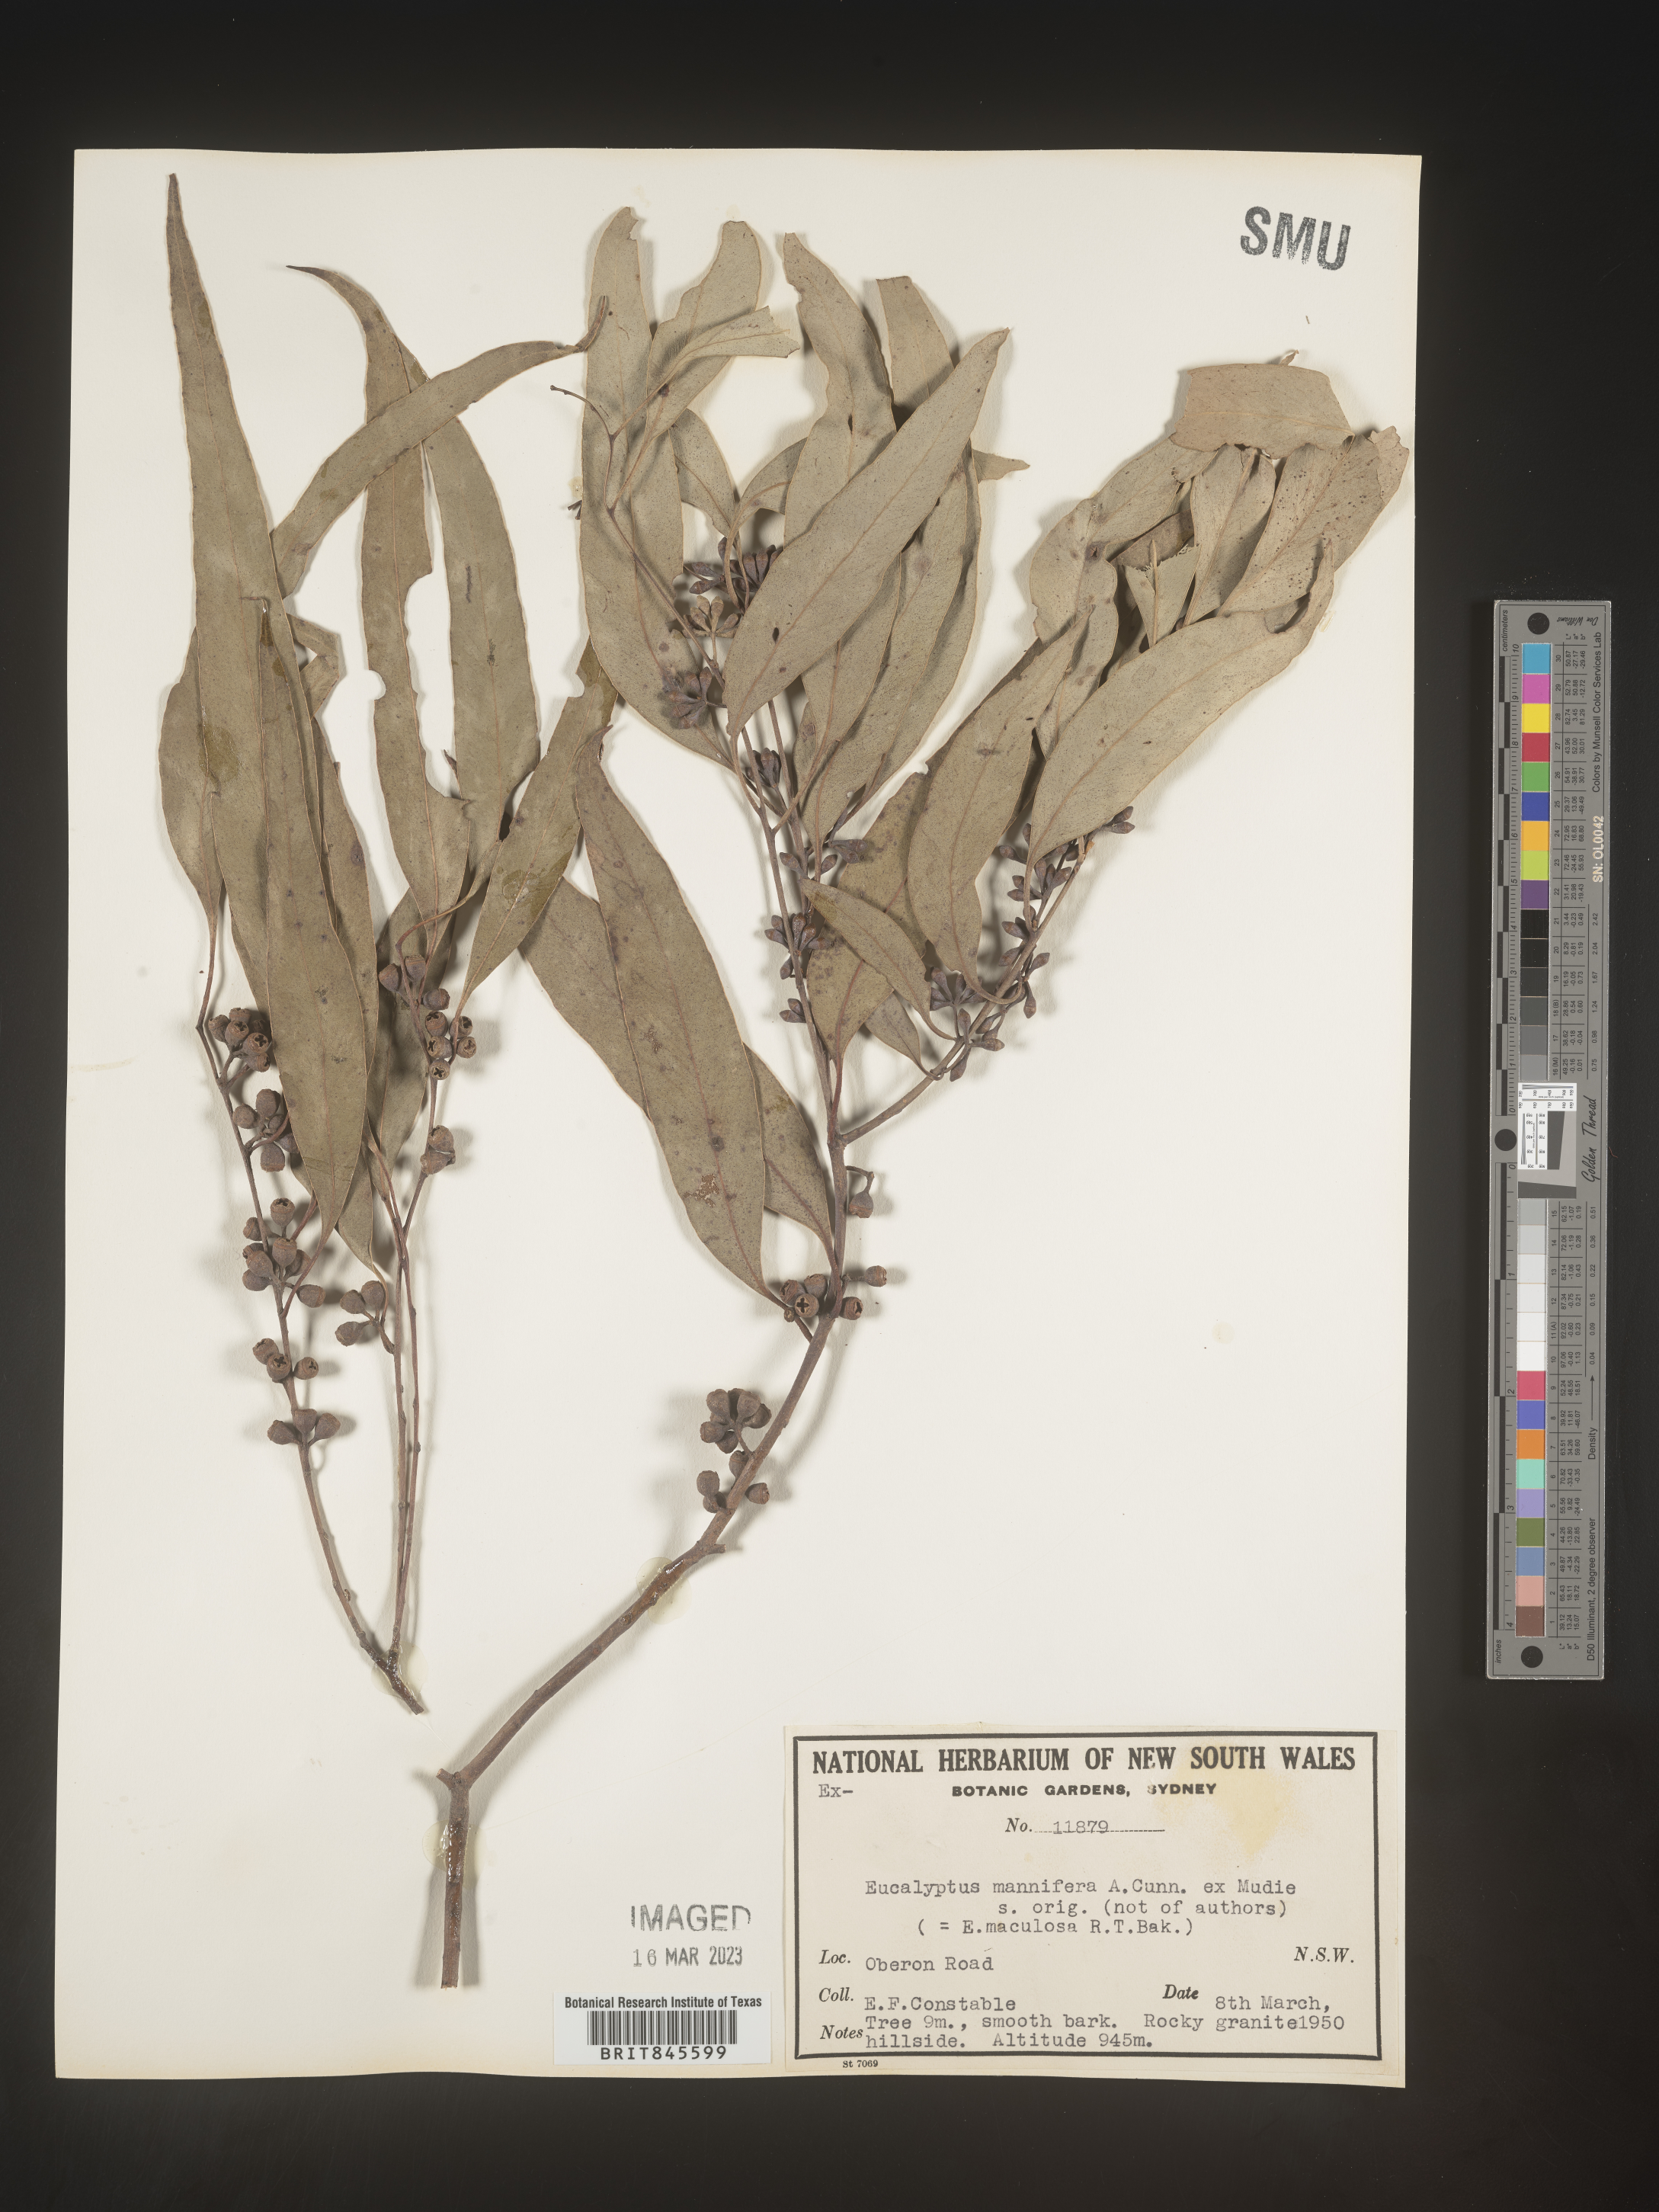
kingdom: Plantae
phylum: Tracheophyta
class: Magnoliopsida
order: Myrtales
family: Myrtaceae
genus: Eucalyptus
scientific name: Eucalyptus
